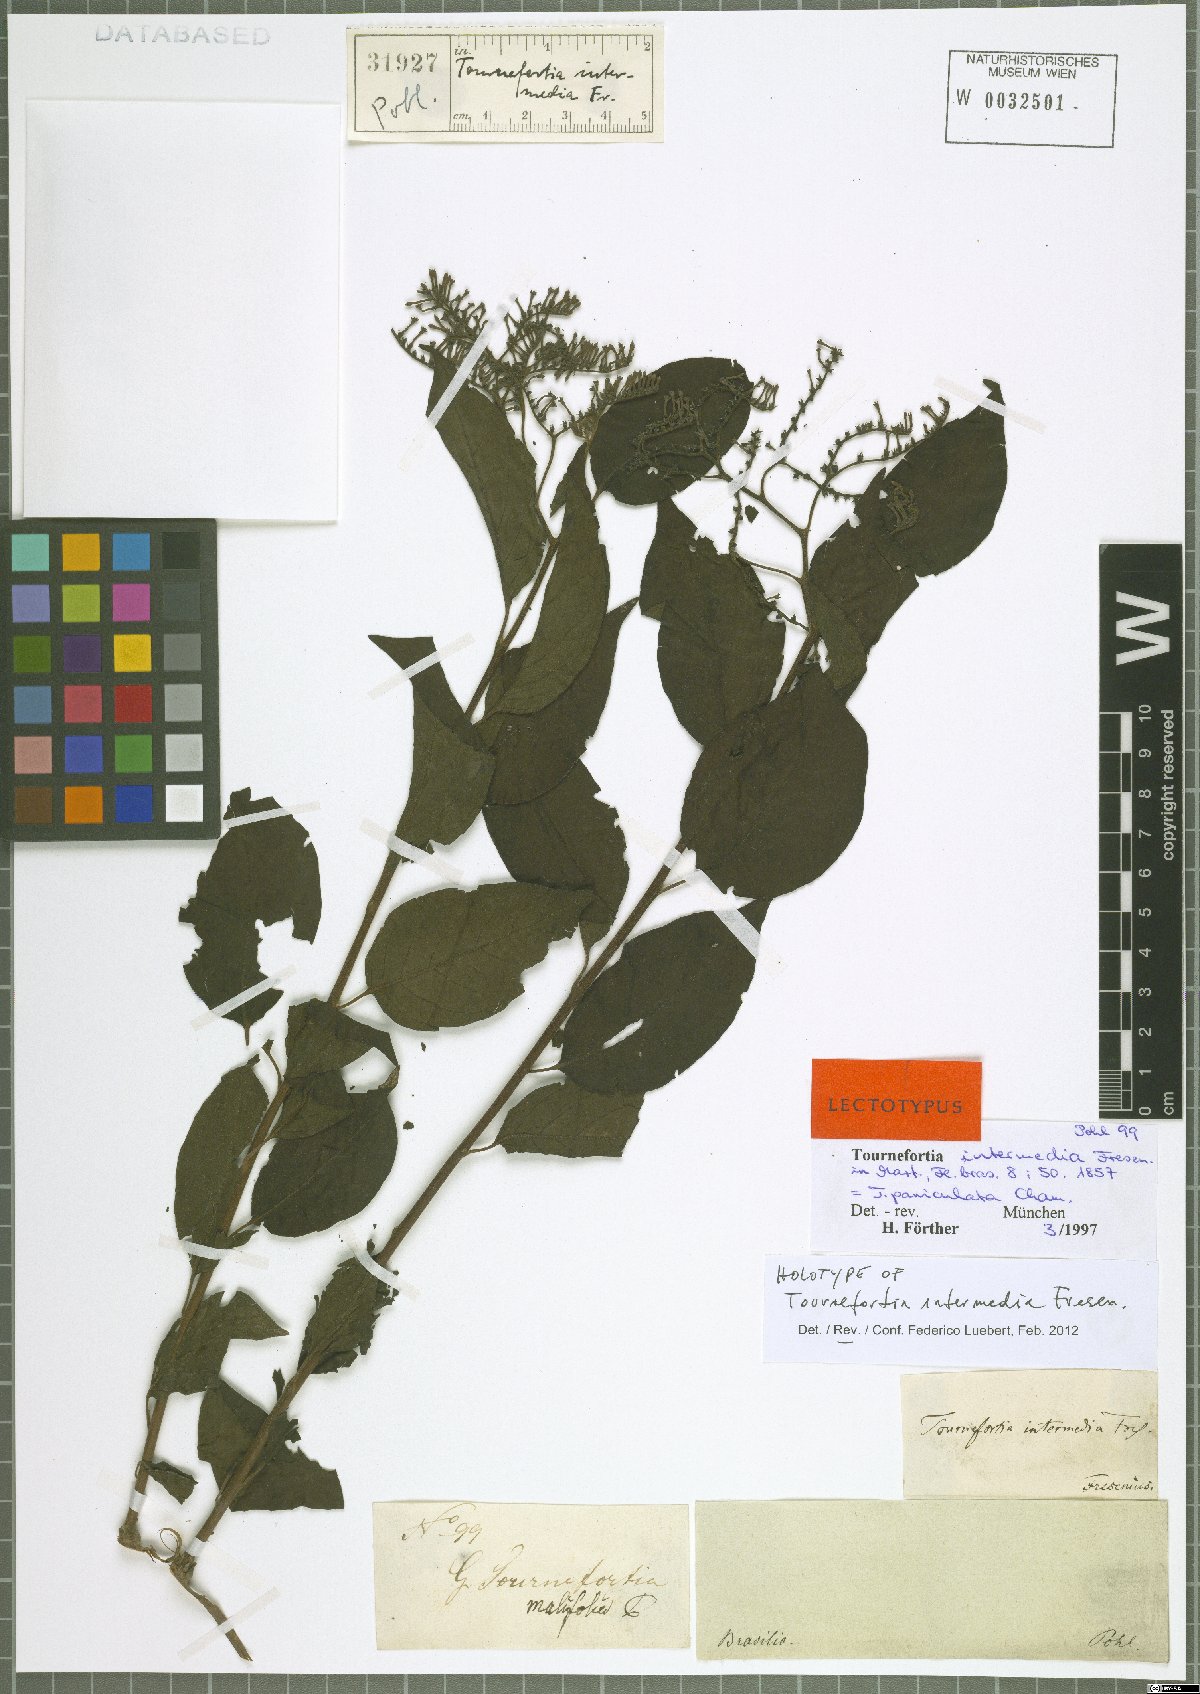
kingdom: Plantae
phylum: Tracheophyta
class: Magnoliopsida
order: Boraginales
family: Heliotropiaceae
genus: Myriopus
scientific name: Myriopus paniculatus
